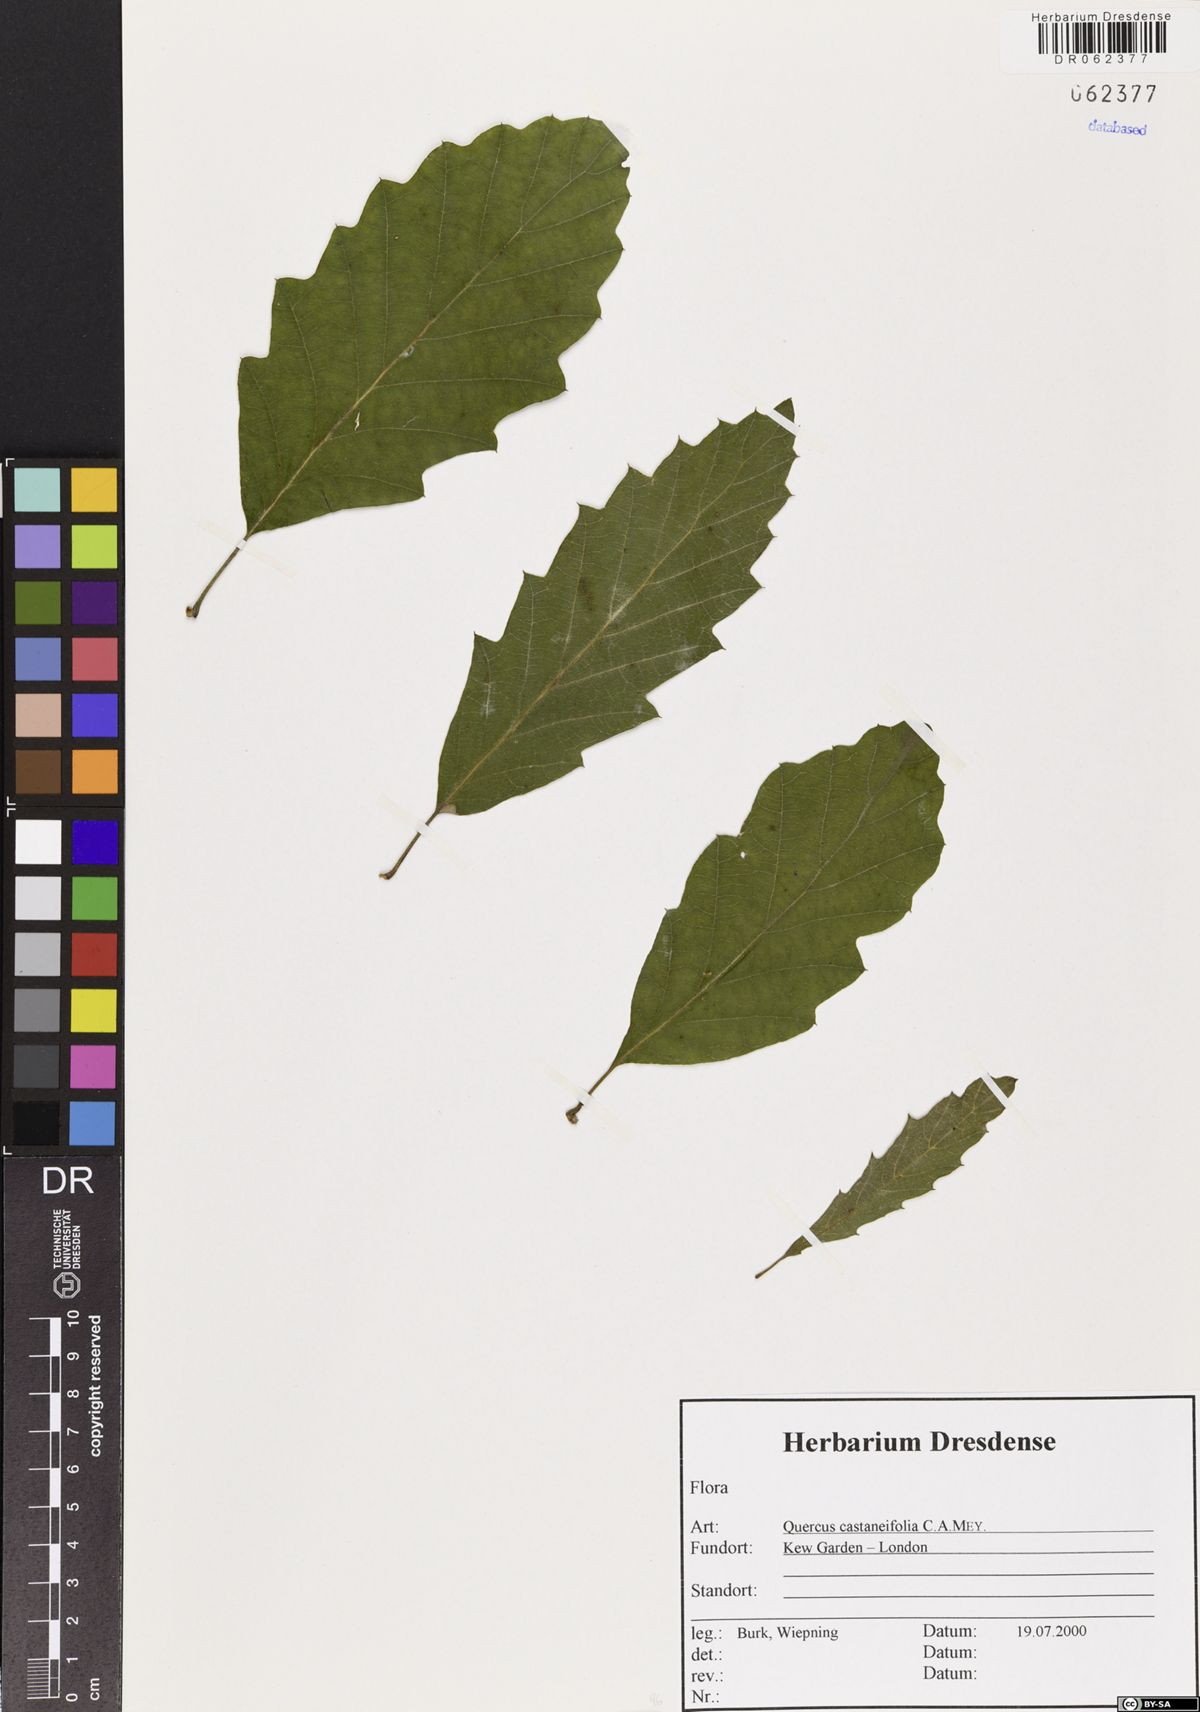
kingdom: Plantae
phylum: Tracheophyta
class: Magnoliopsida
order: Fagales
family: Fagaceae
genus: Quercus
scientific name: Quercus castaneifolia
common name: Chestnut-leaved oak
